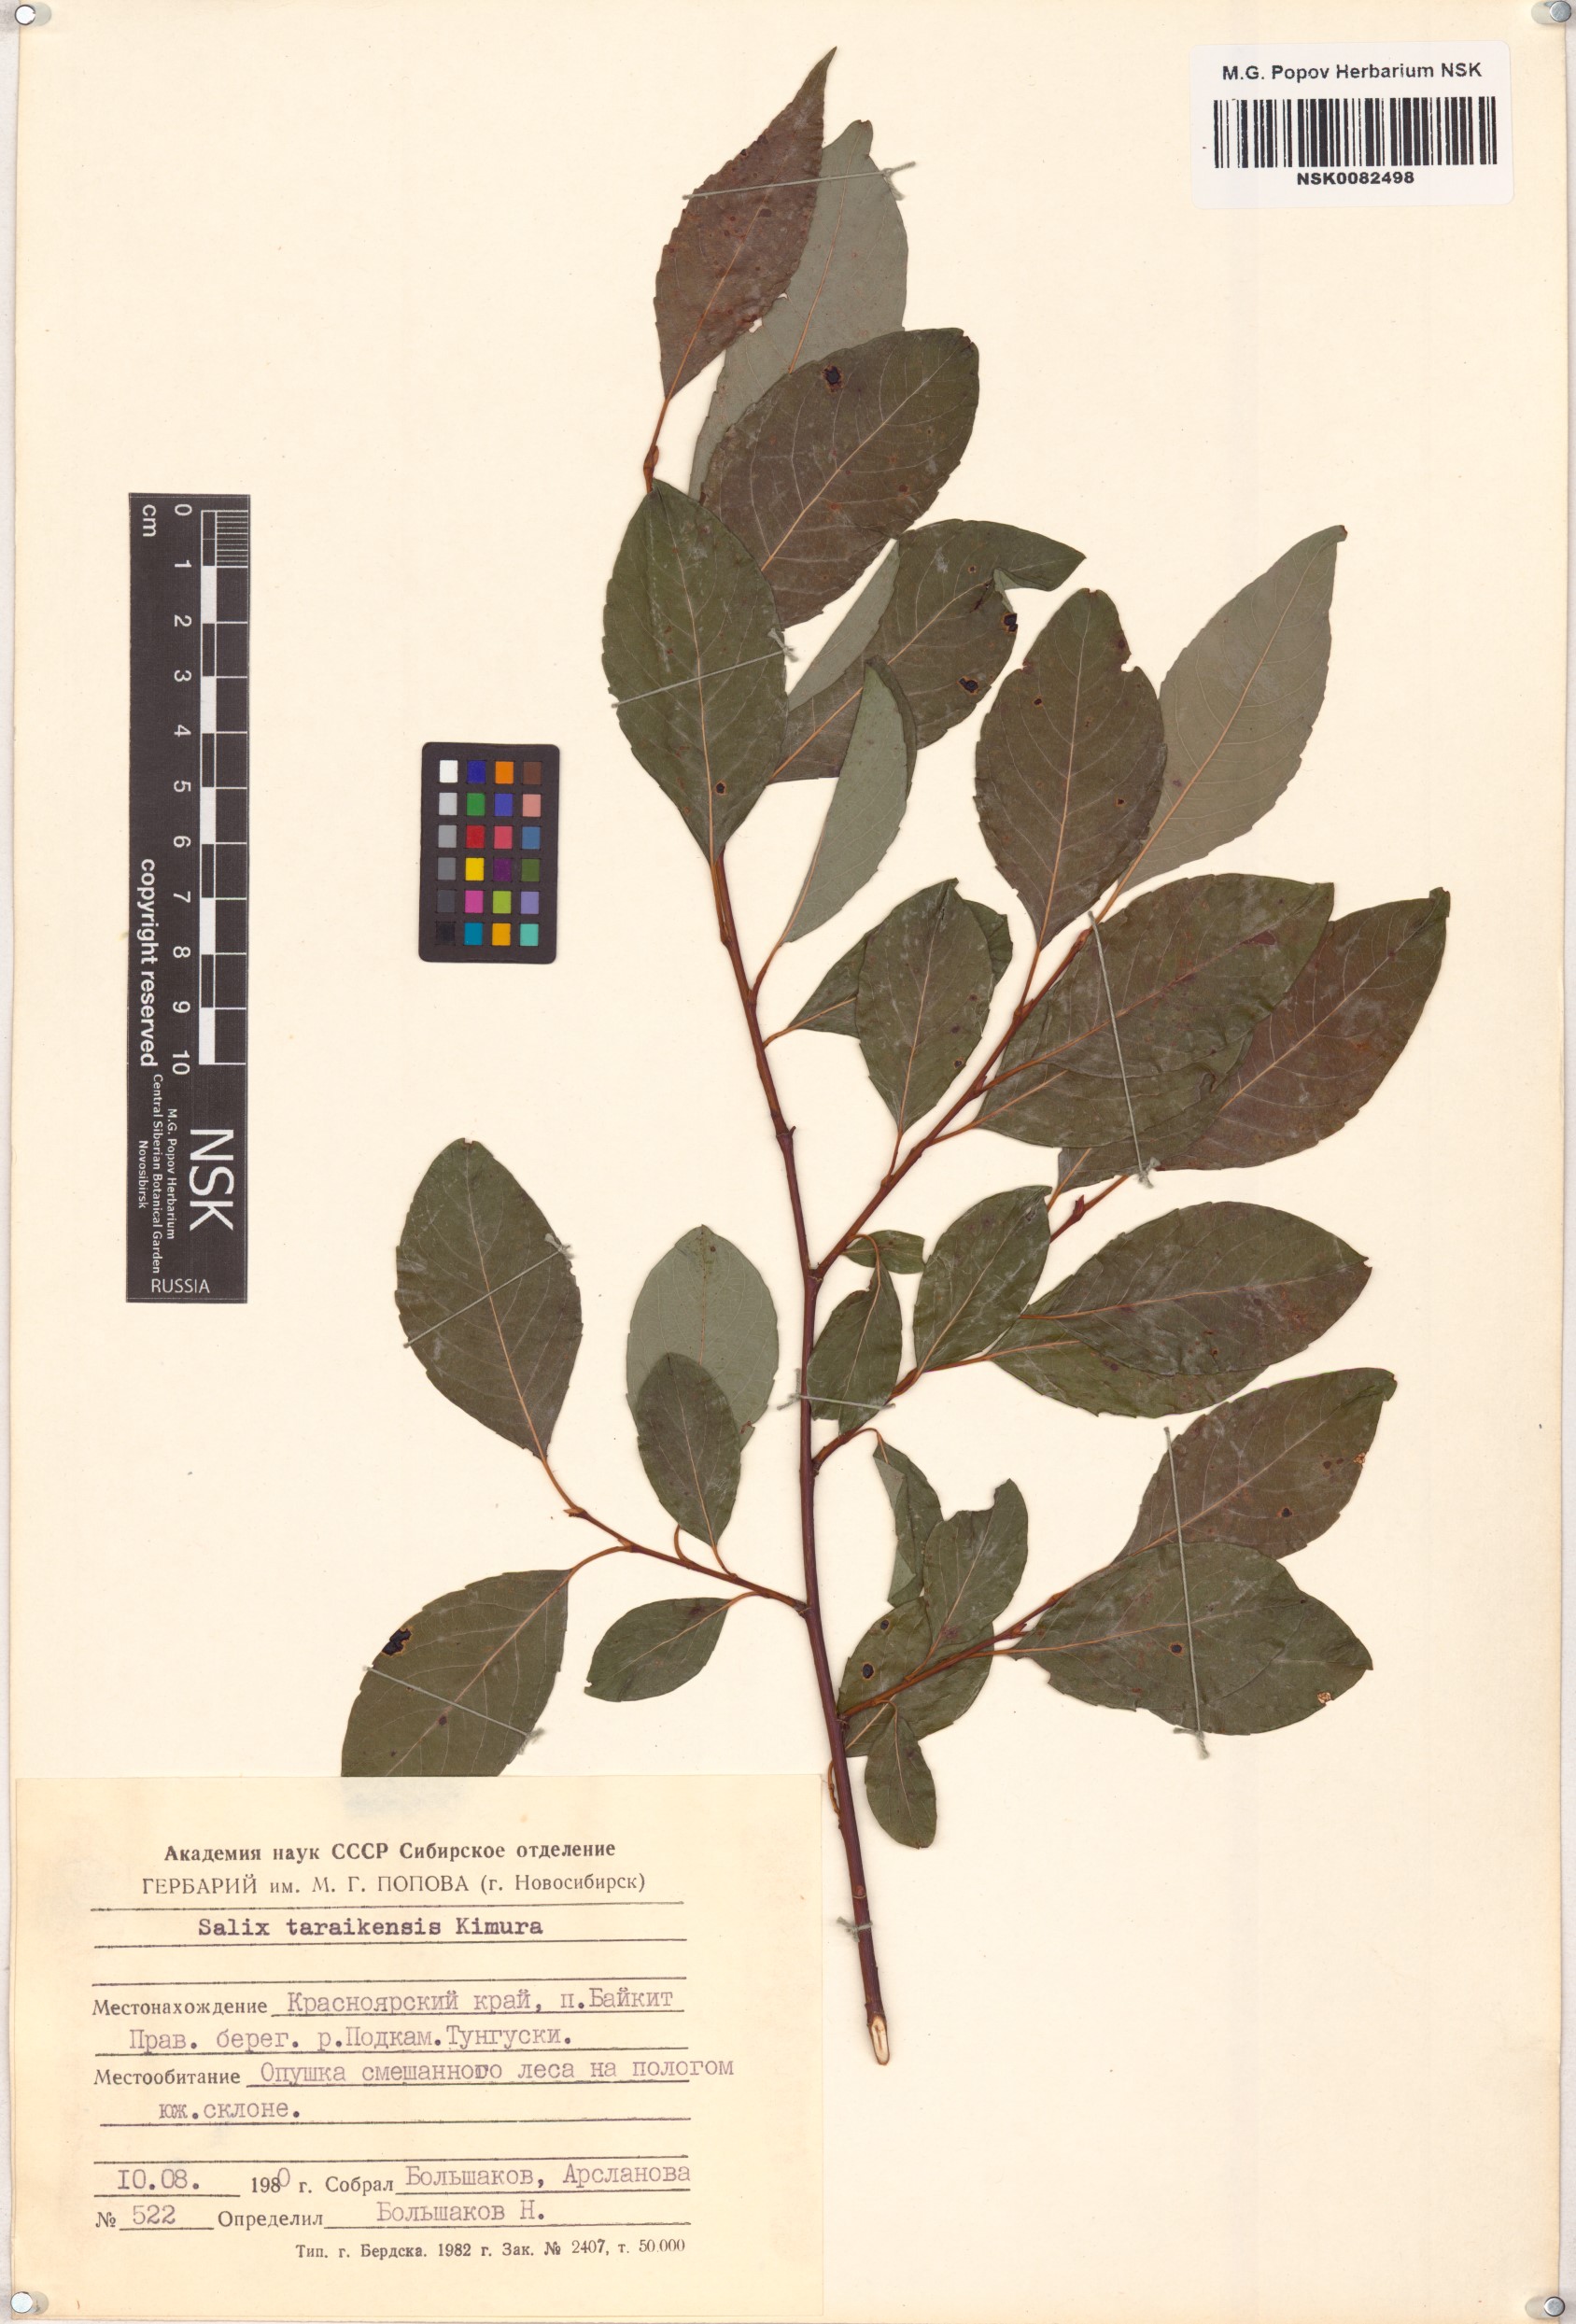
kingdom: Plantae
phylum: Tracheophyta
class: Magnoliopsida
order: Malpighiales
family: Salicaceae
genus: Salix
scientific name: Salix taraikensis
